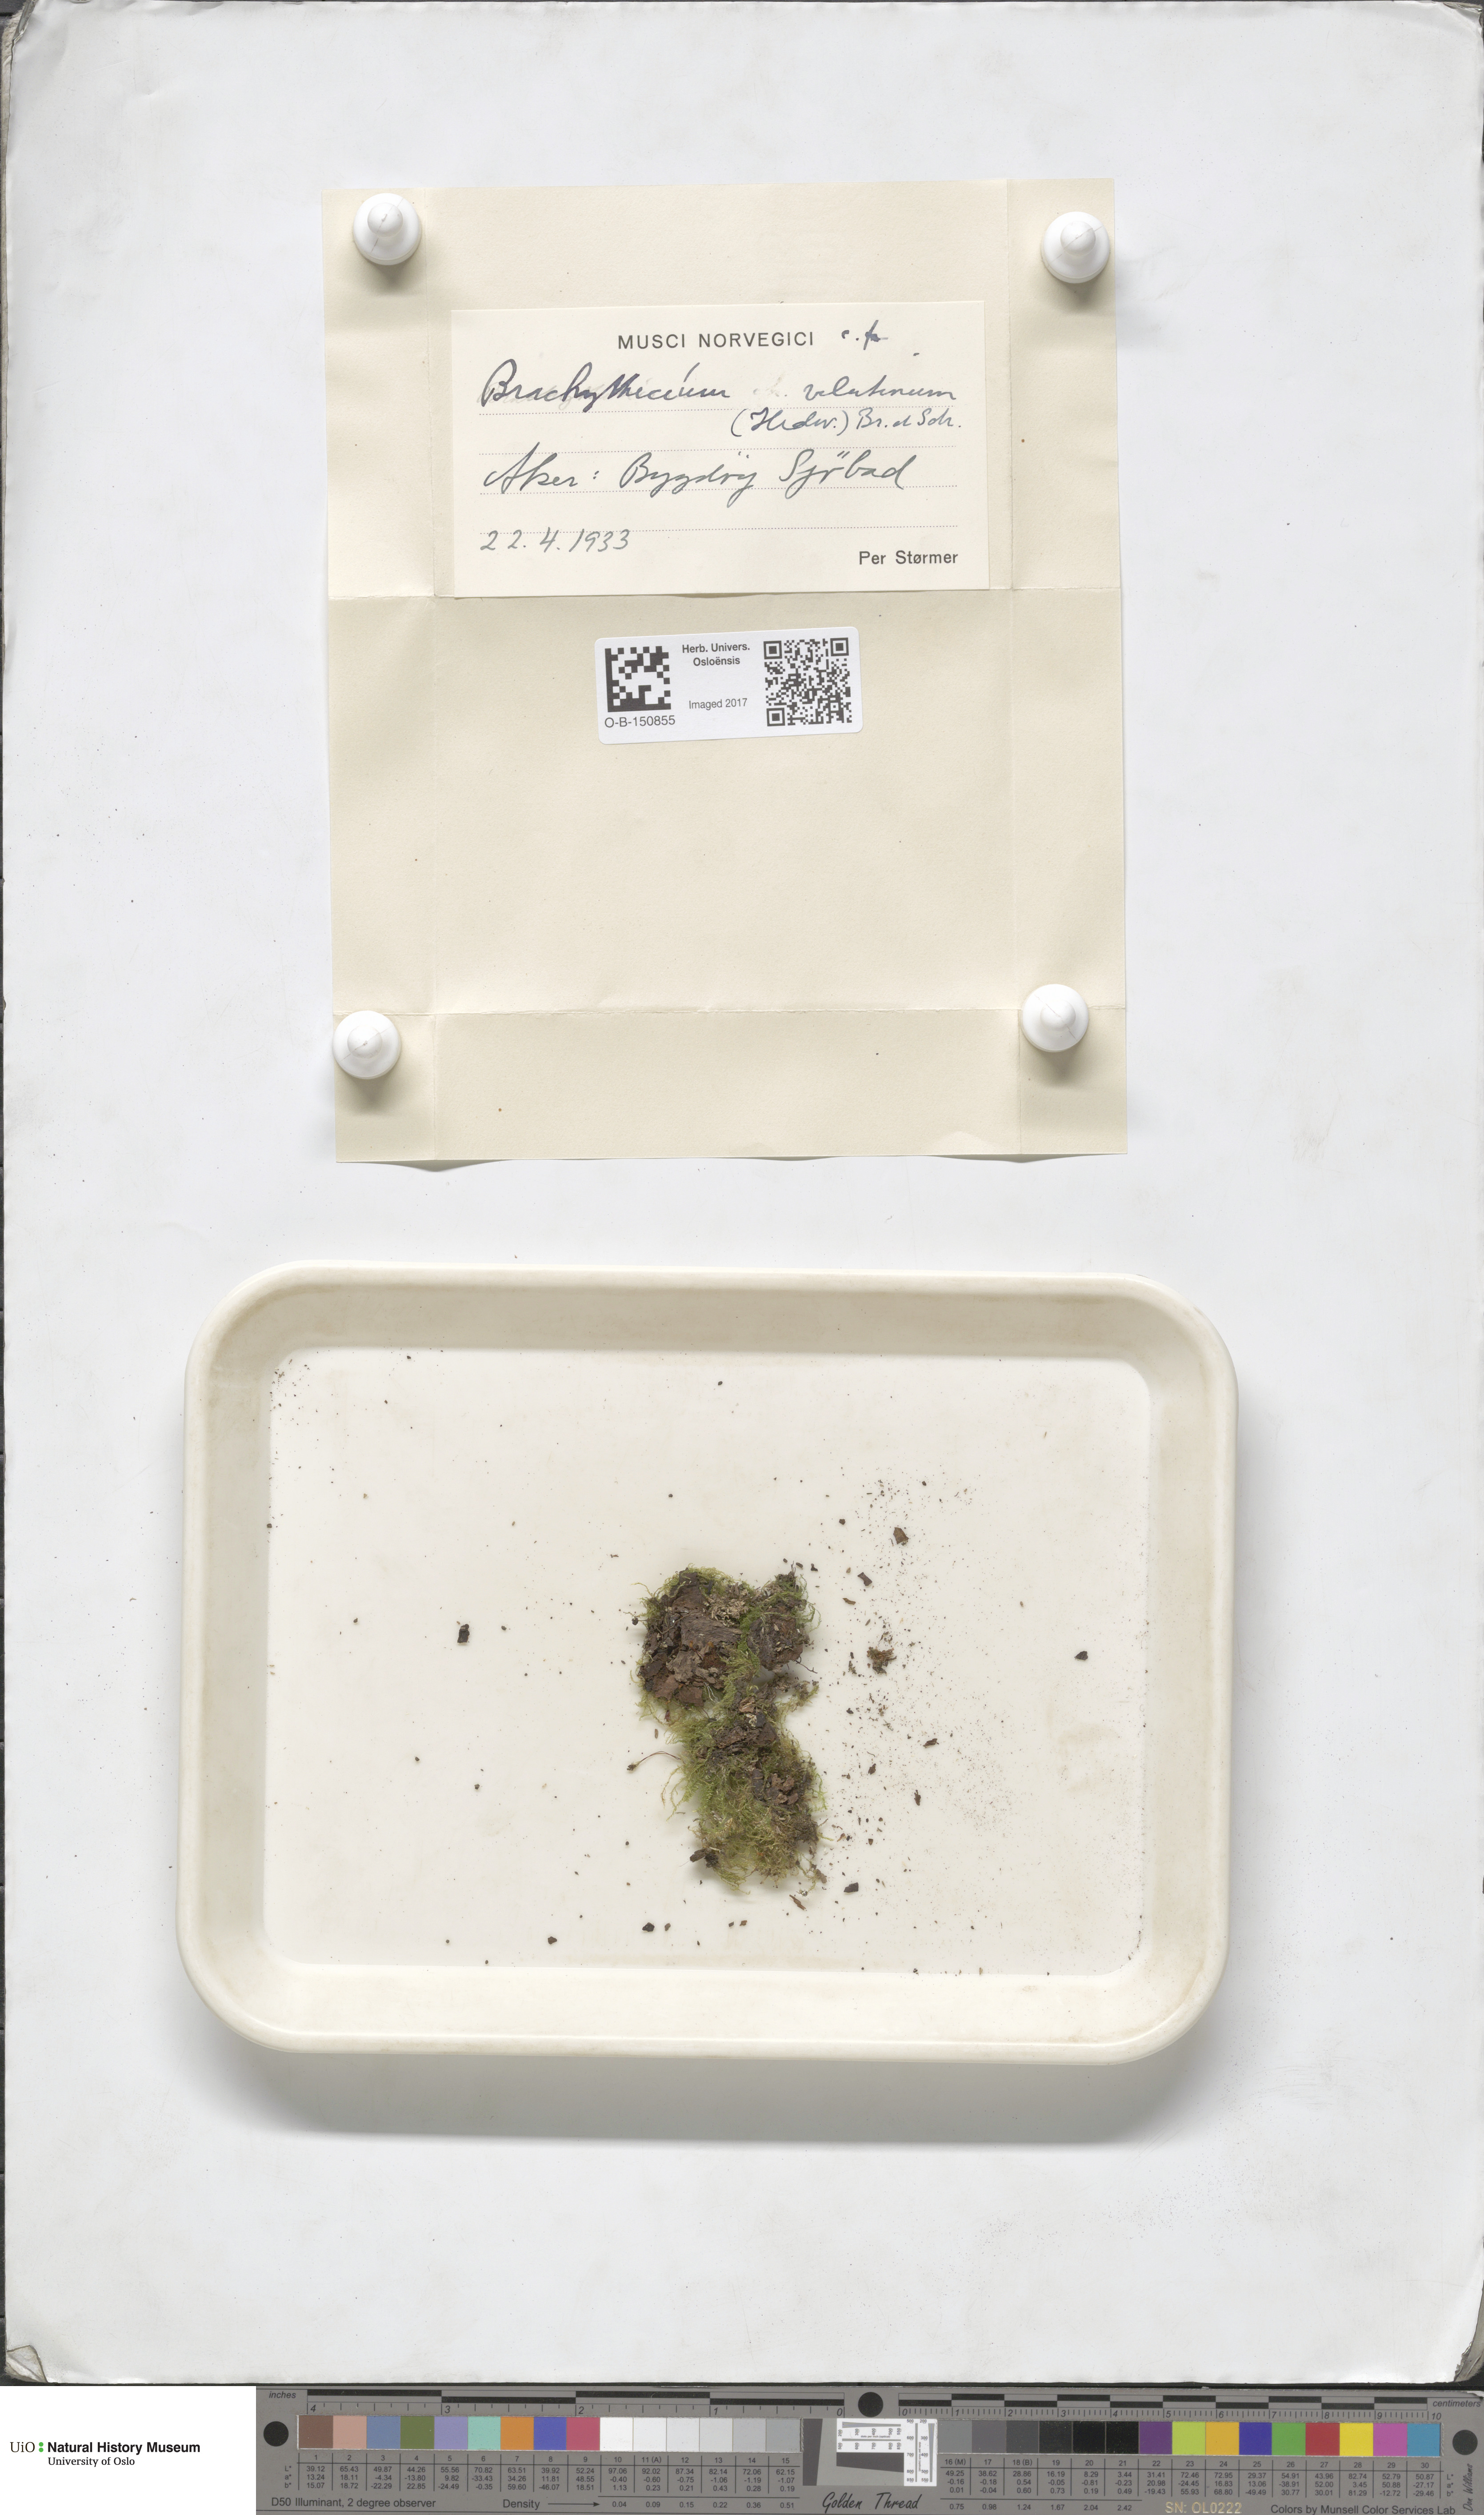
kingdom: Plantae
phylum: Bryophyta
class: Bryopsida
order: Hypnales
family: Brachytheciaceae
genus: Brachytheciastrum
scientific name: Brachytheciastrum velutinum
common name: Velvet feather-moss
